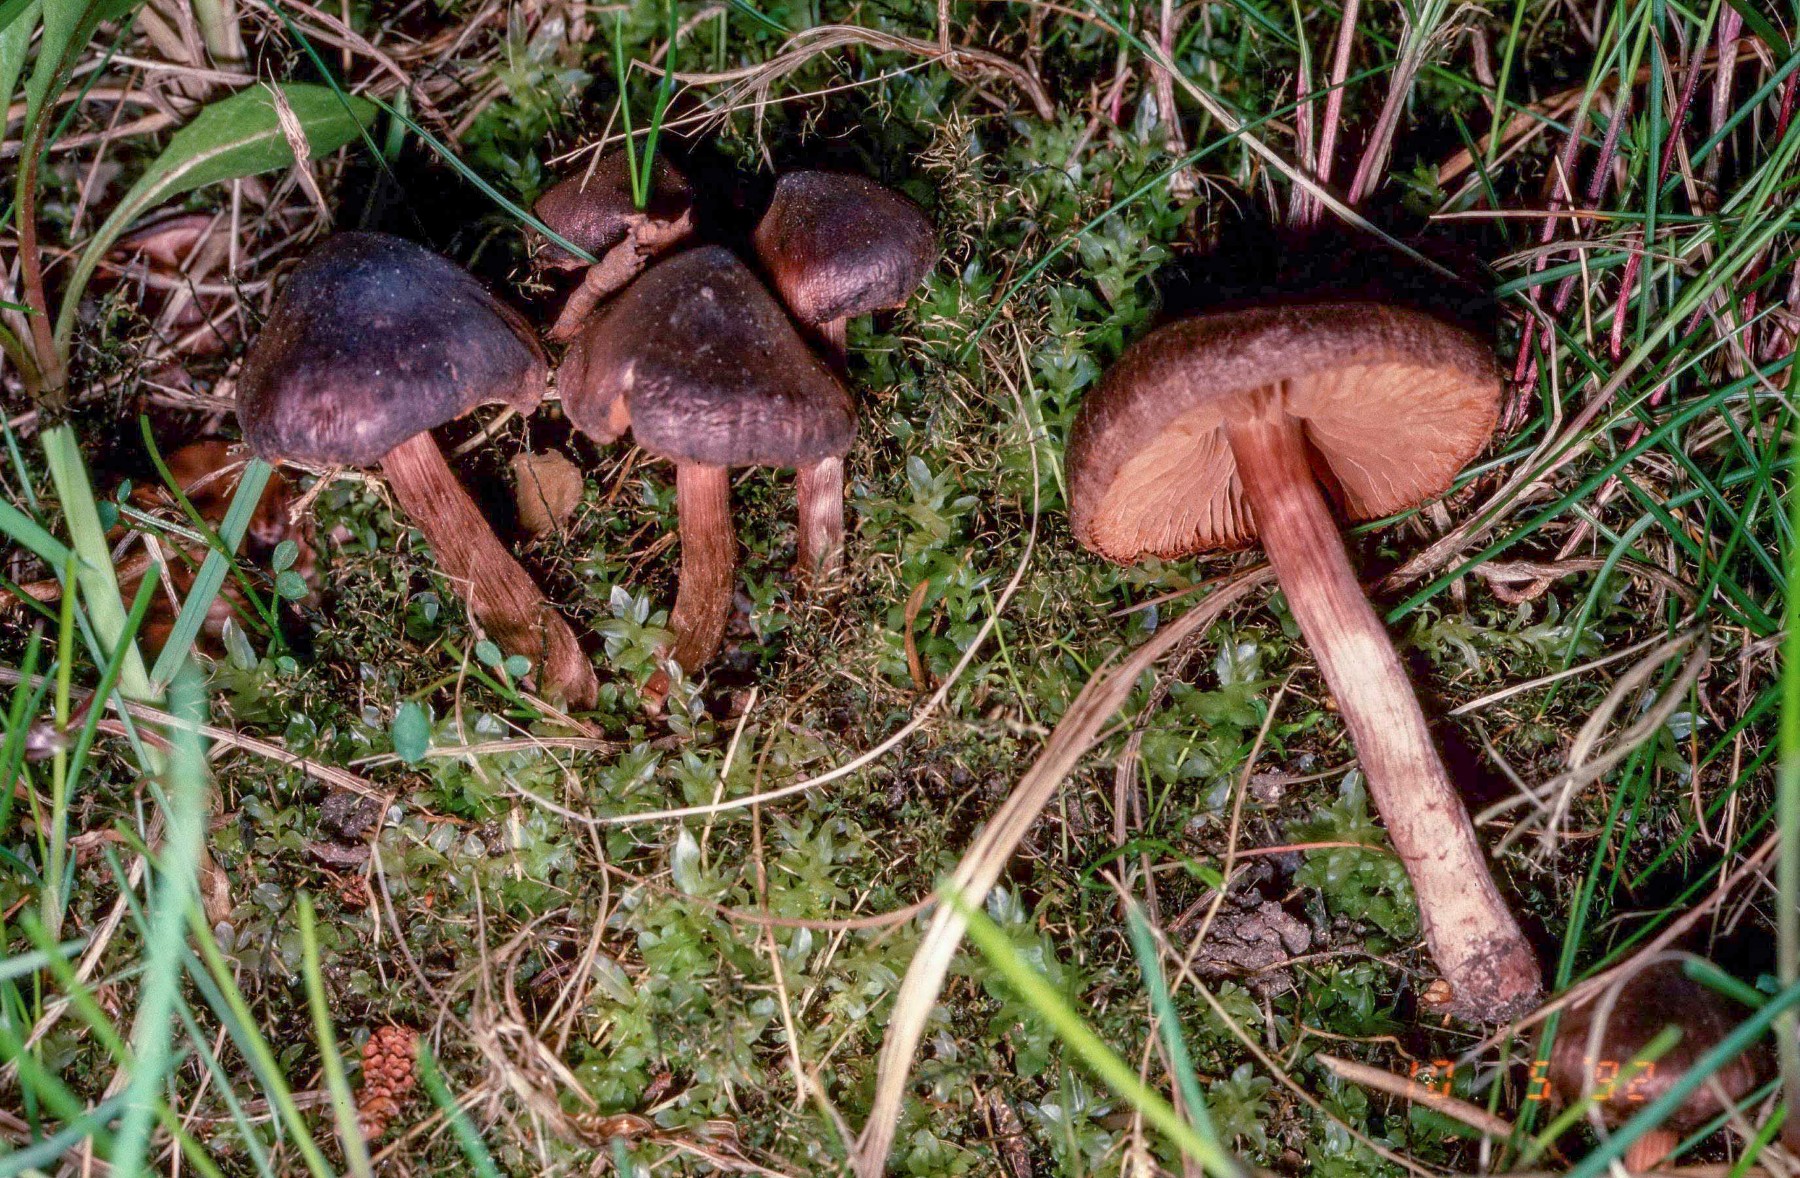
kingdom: Fungi
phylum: Basidiomycota
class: Agaricomycetes
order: Agaricales
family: Cortinariaceae
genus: Cortinarius
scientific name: Cortinarius vernus
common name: sommer-slørhat
